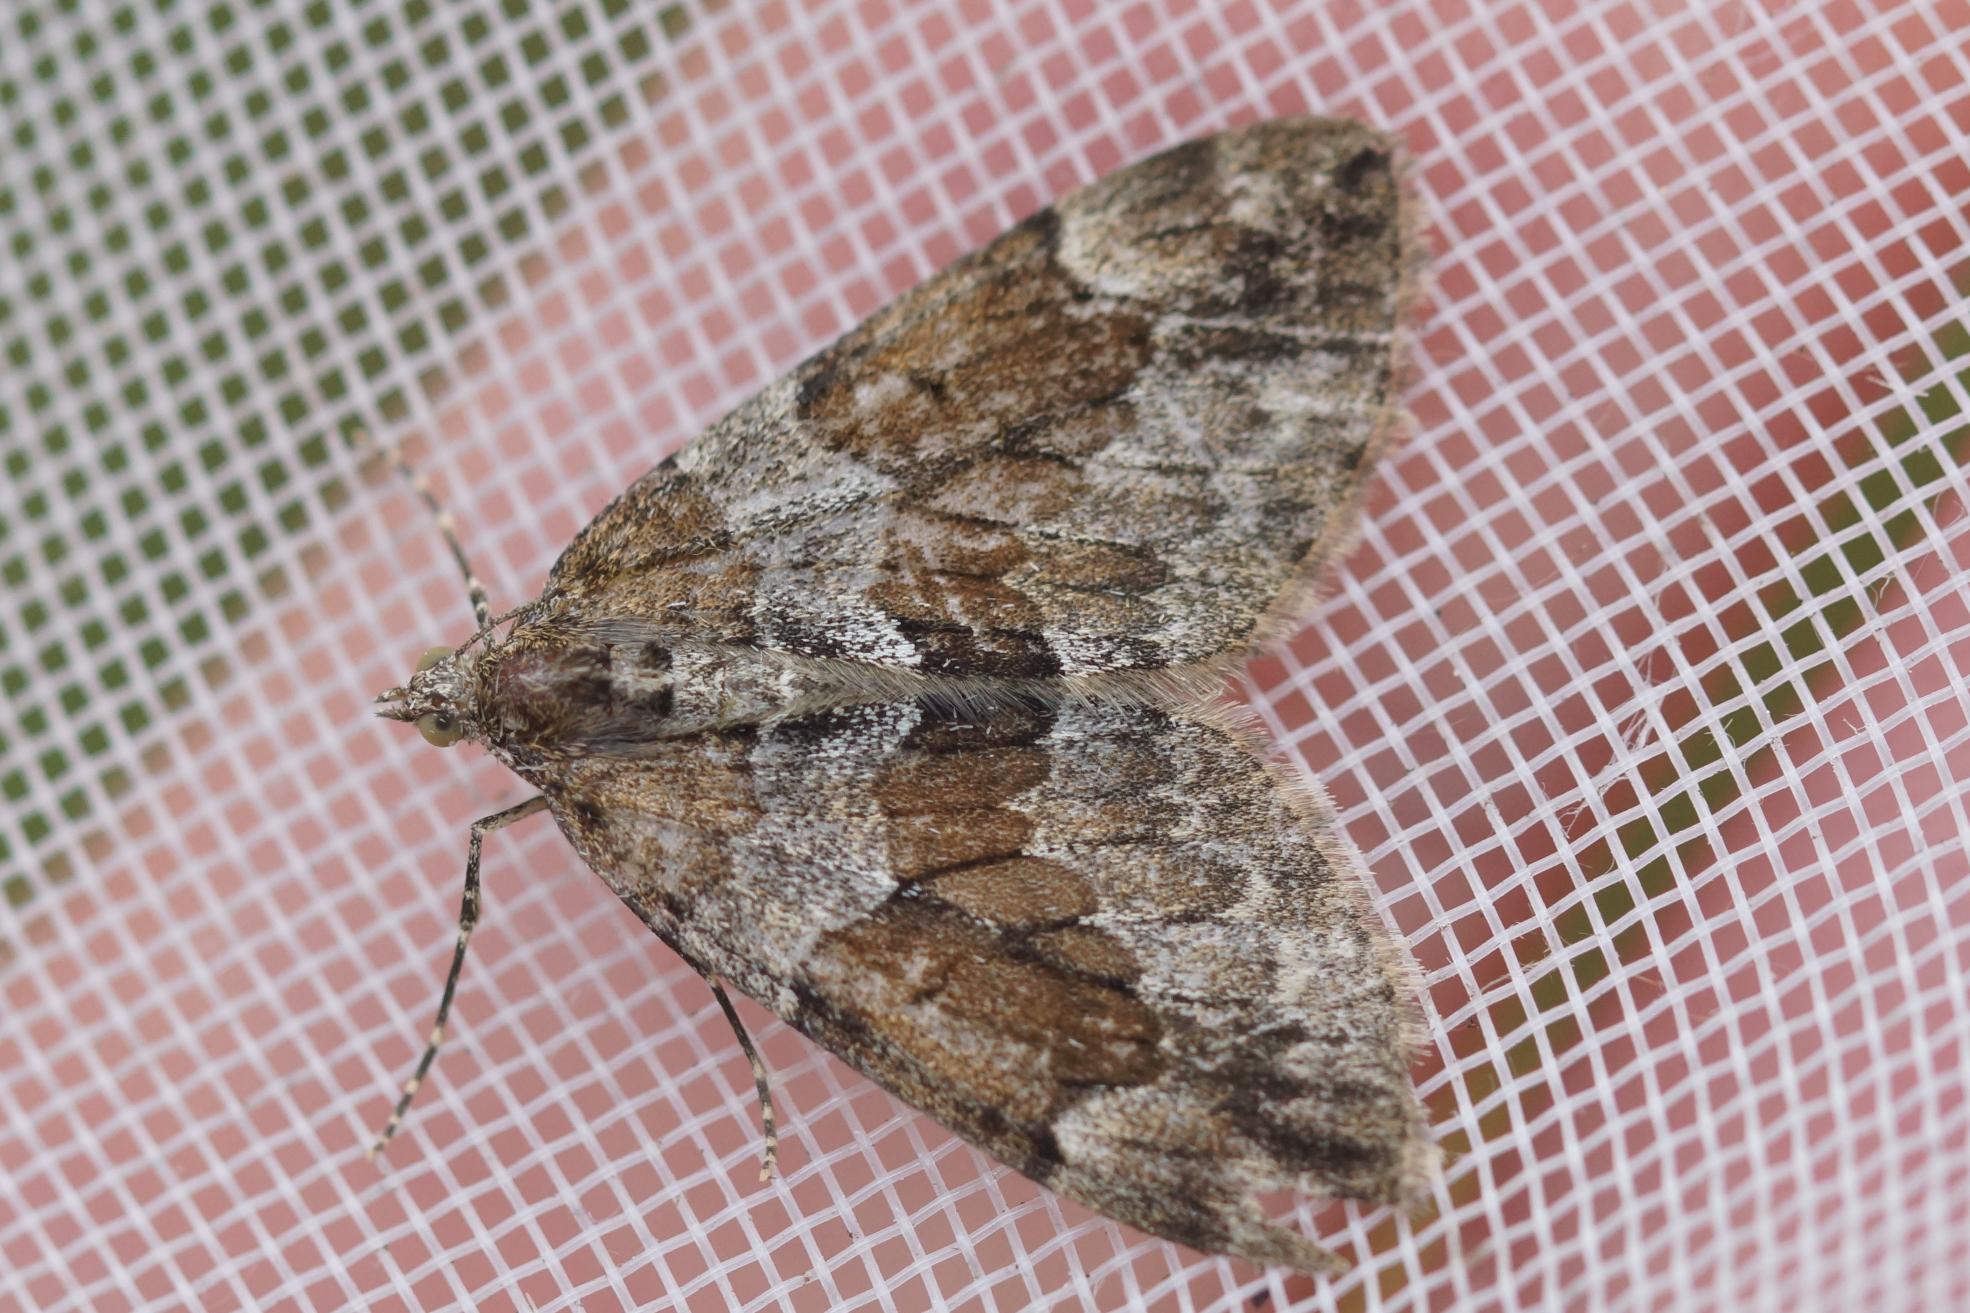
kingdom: Animalia
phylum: Arthropoda
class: Insecta
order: Lepidoptera
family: Geometridae
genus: Thera
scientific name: Thera obeliscata
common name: Grå fyrremåler
